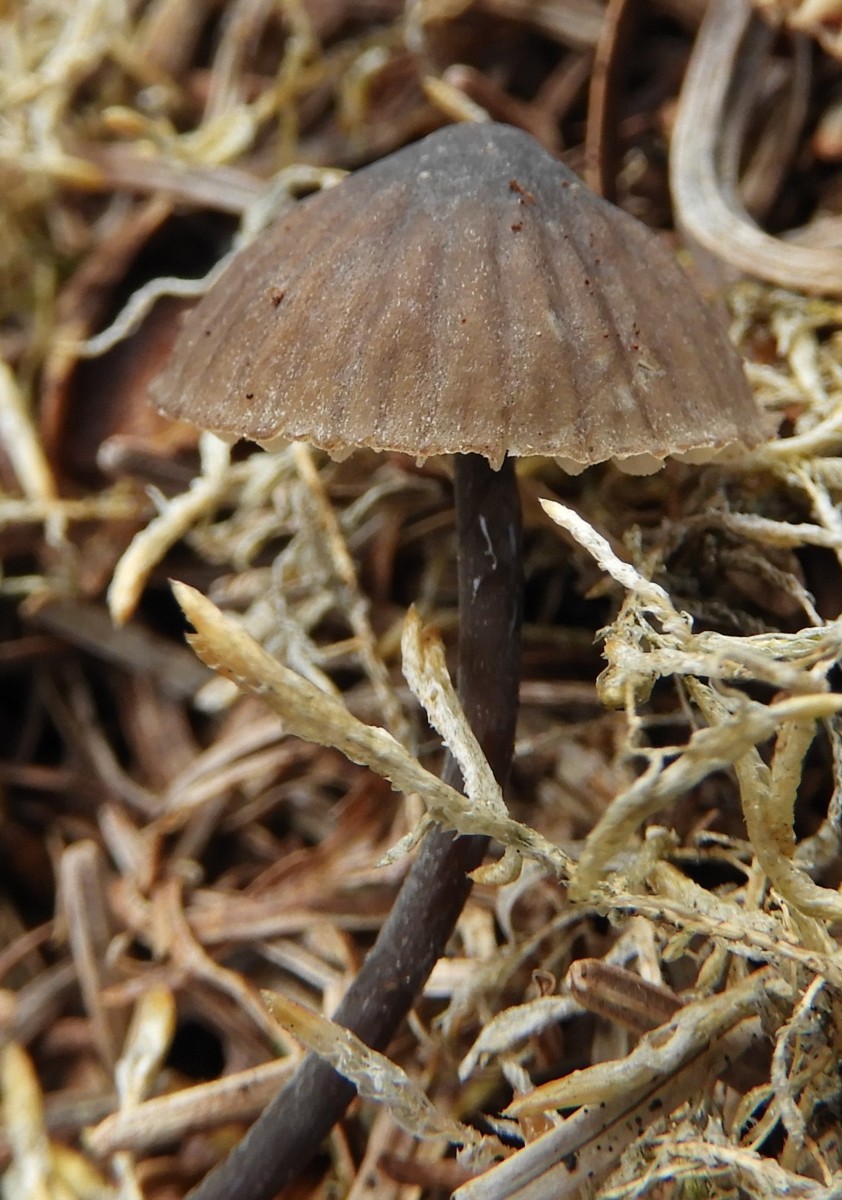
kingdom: Fungi
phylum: Basidiomycota
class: Agaricomycetes
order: Agaricales
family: Mycenaceae
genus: Mycena
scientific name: Mycena galopus
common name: hvidmælket huesvamp
